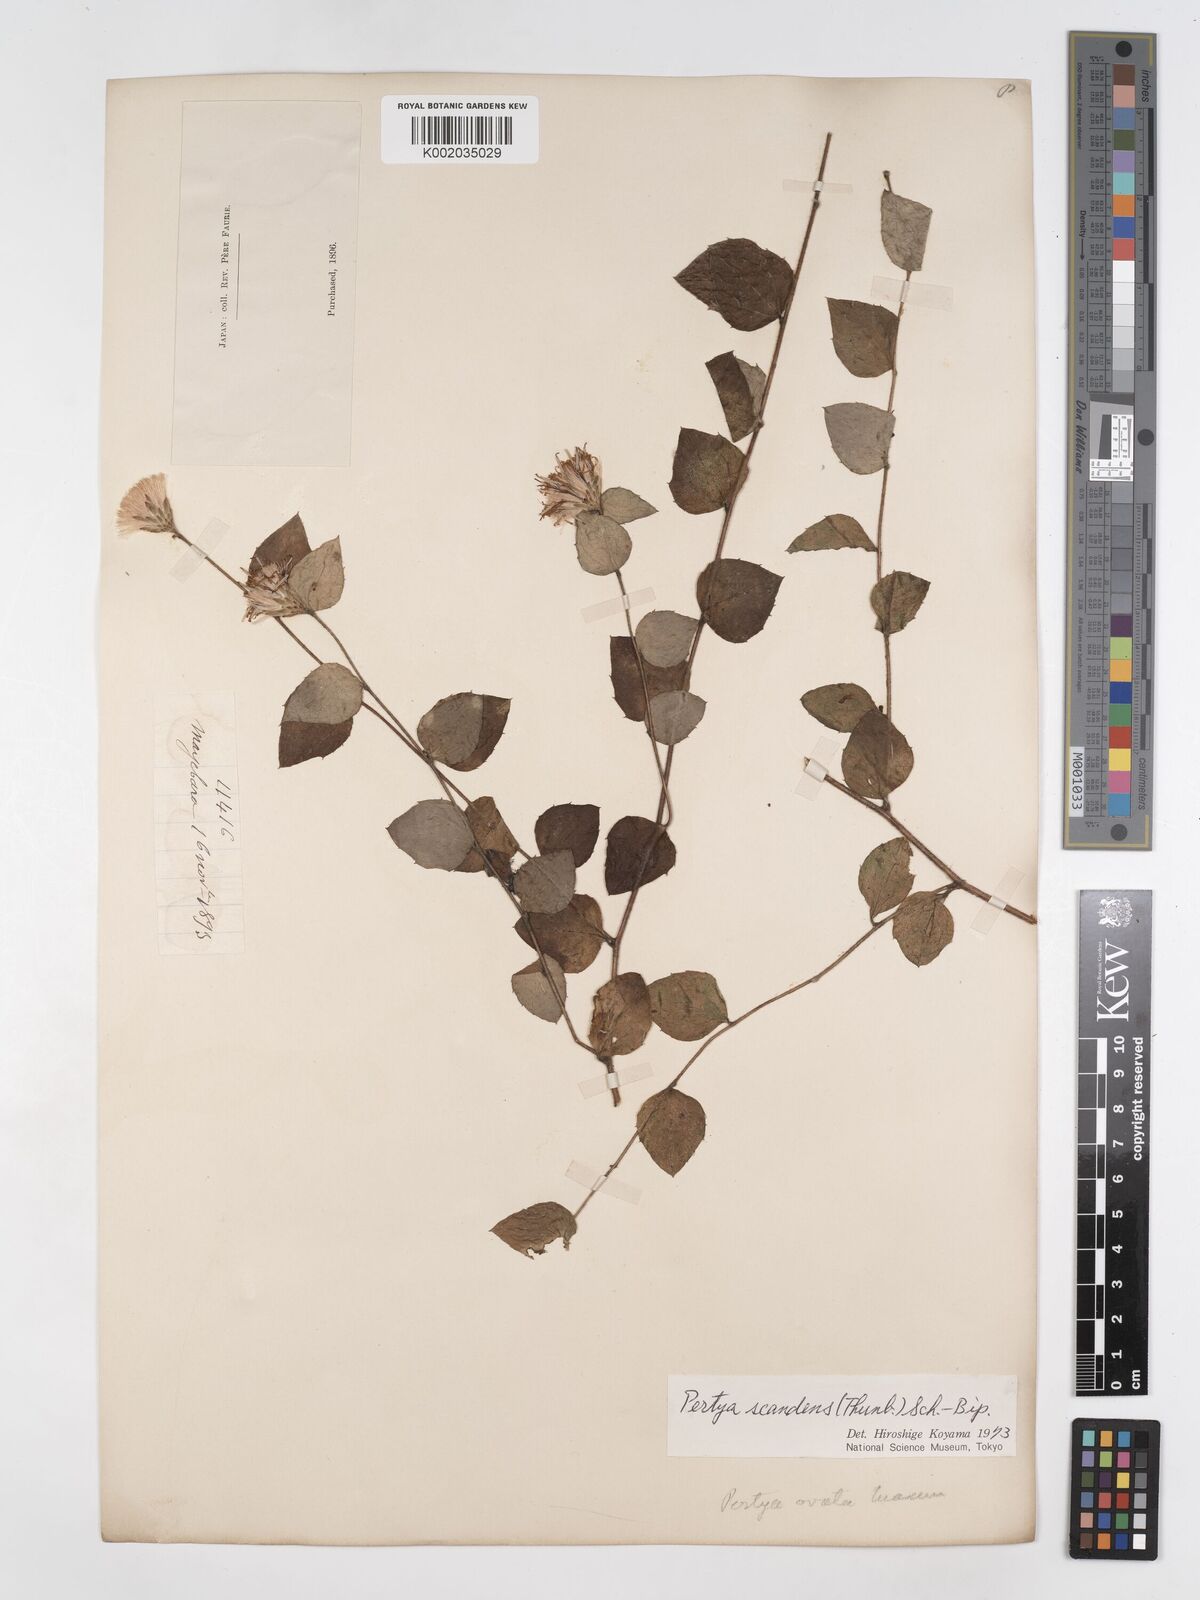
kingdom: Plantae
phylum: Tracheophyta
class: Magnoliopsida
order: Asterales
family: Asteraceae
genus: Pertya
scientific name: Pertya scandens
